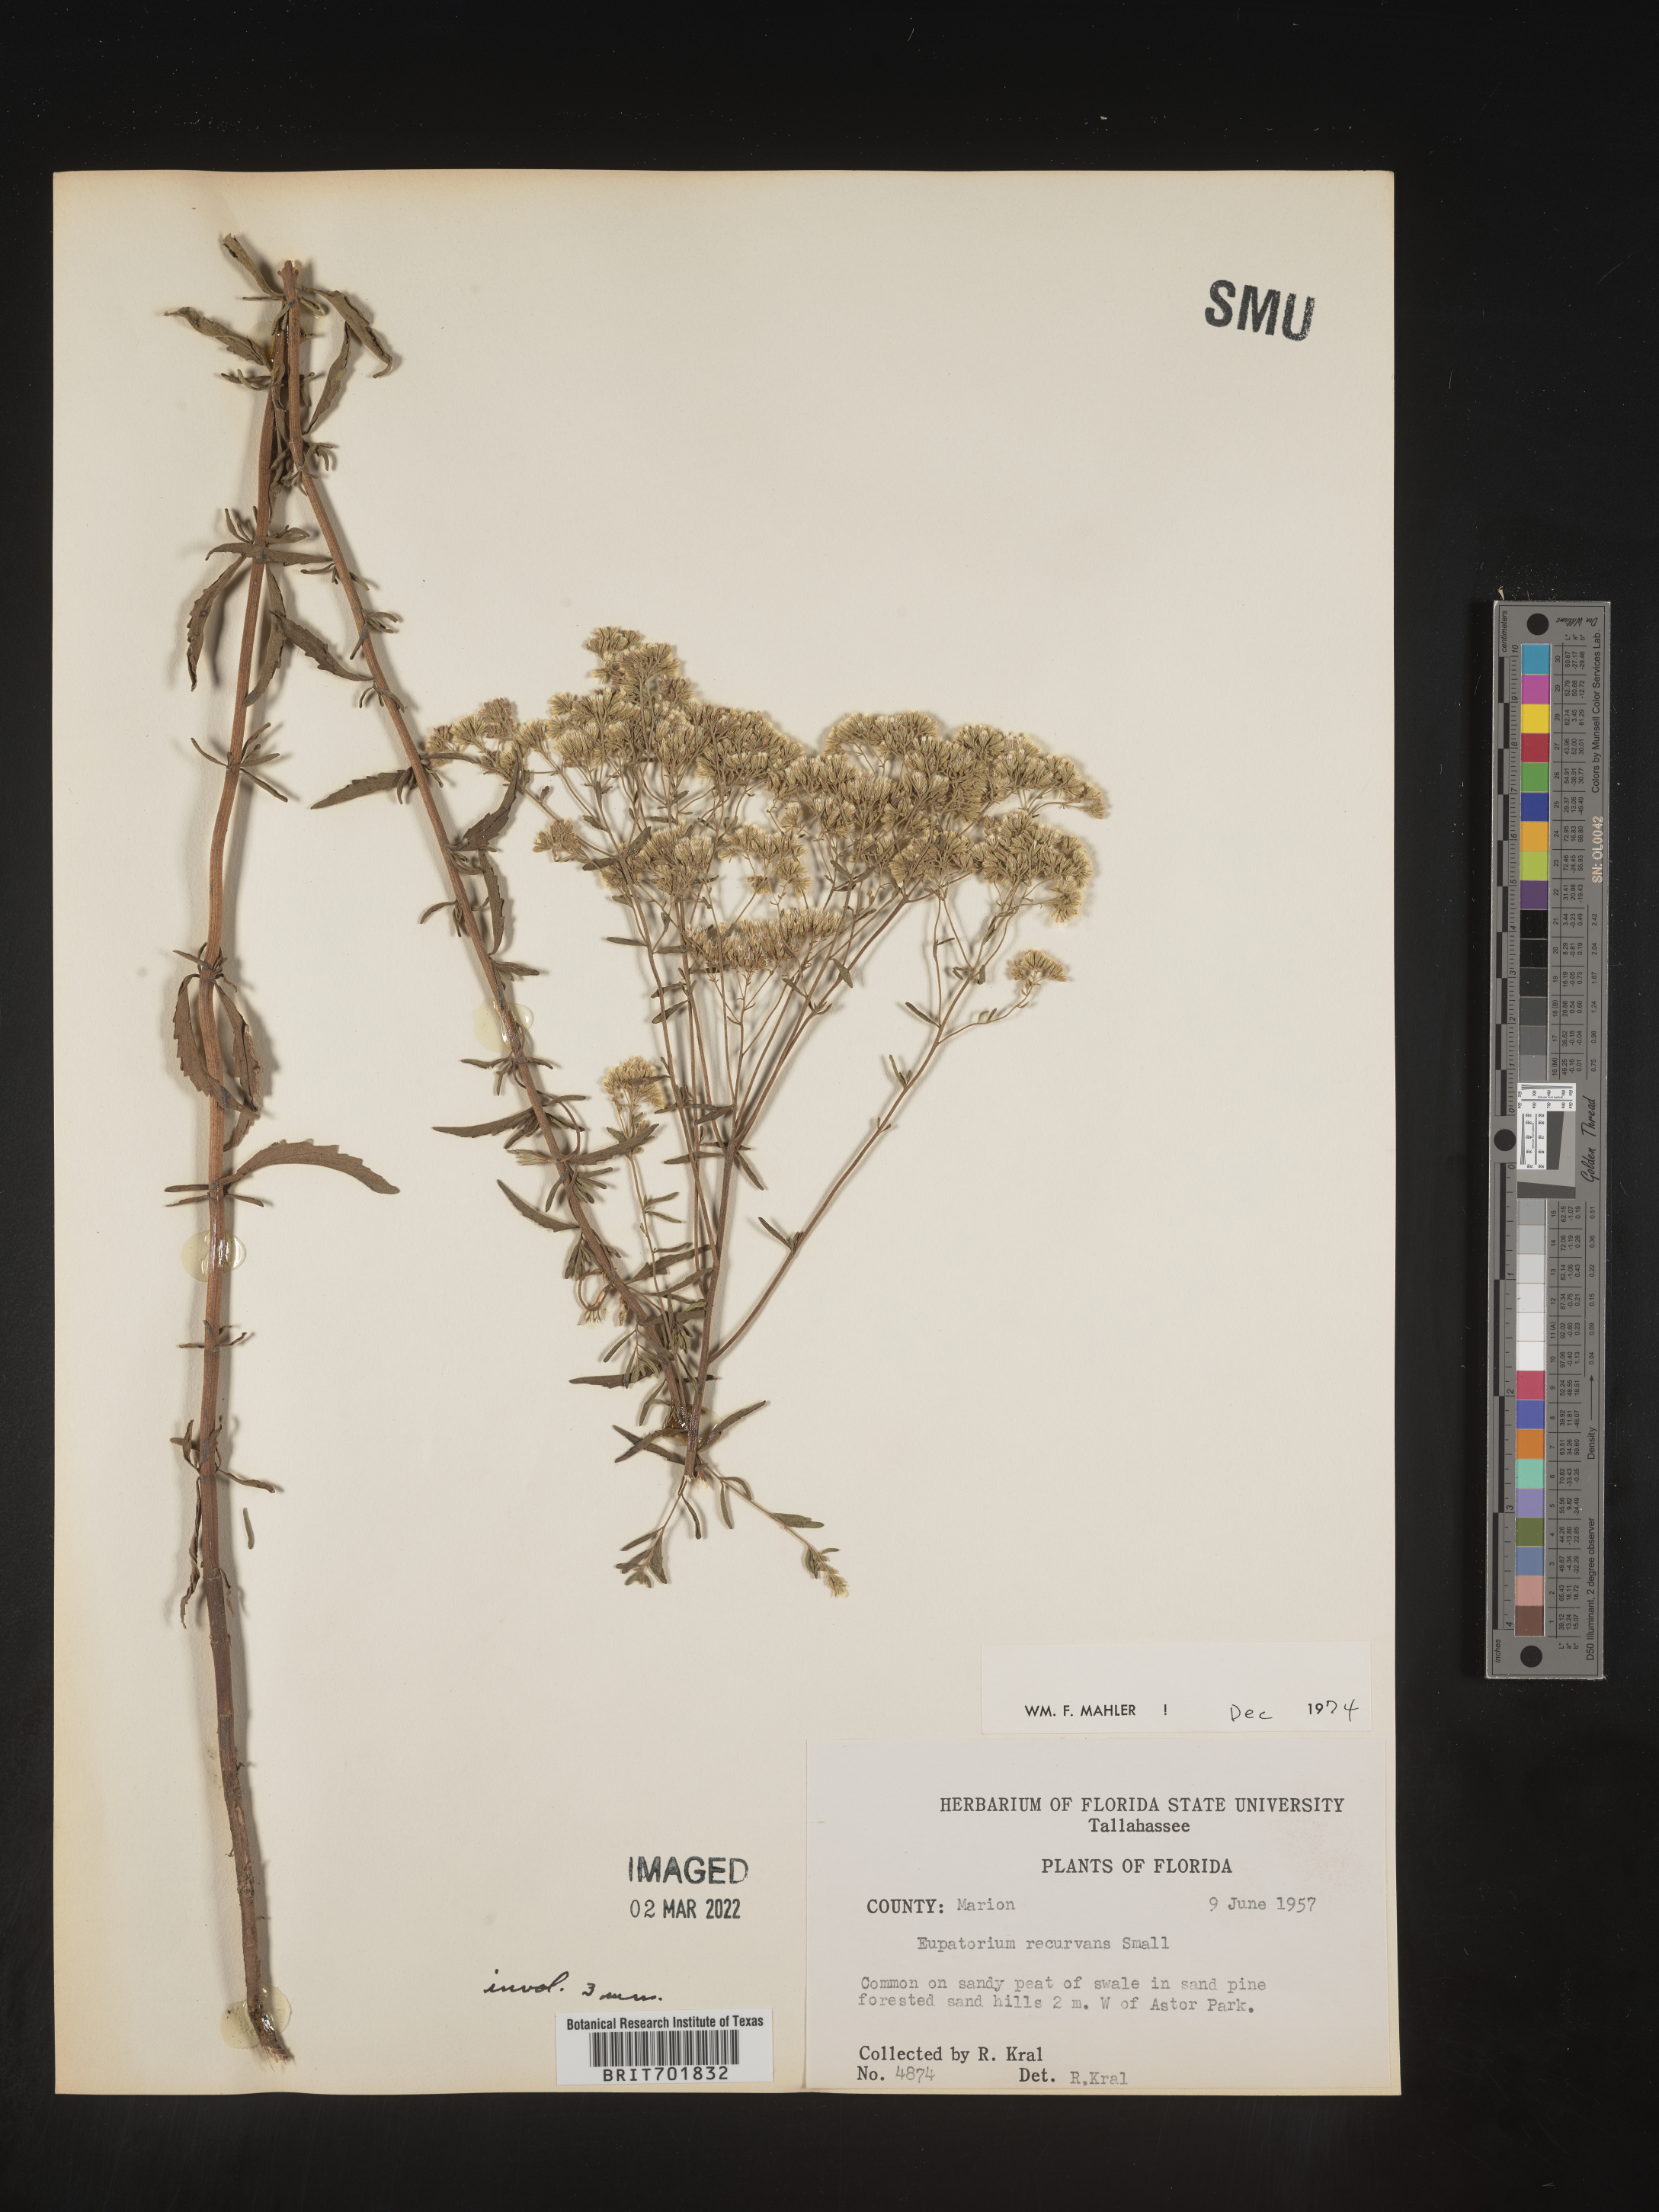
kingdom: Plantae
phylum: Tracheophyta
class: Magnoliopsida
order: Asterales
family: Asteraceae
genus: Eupatorium
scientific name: Eupatorium mohrii
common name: Mohr's thoroughwort
